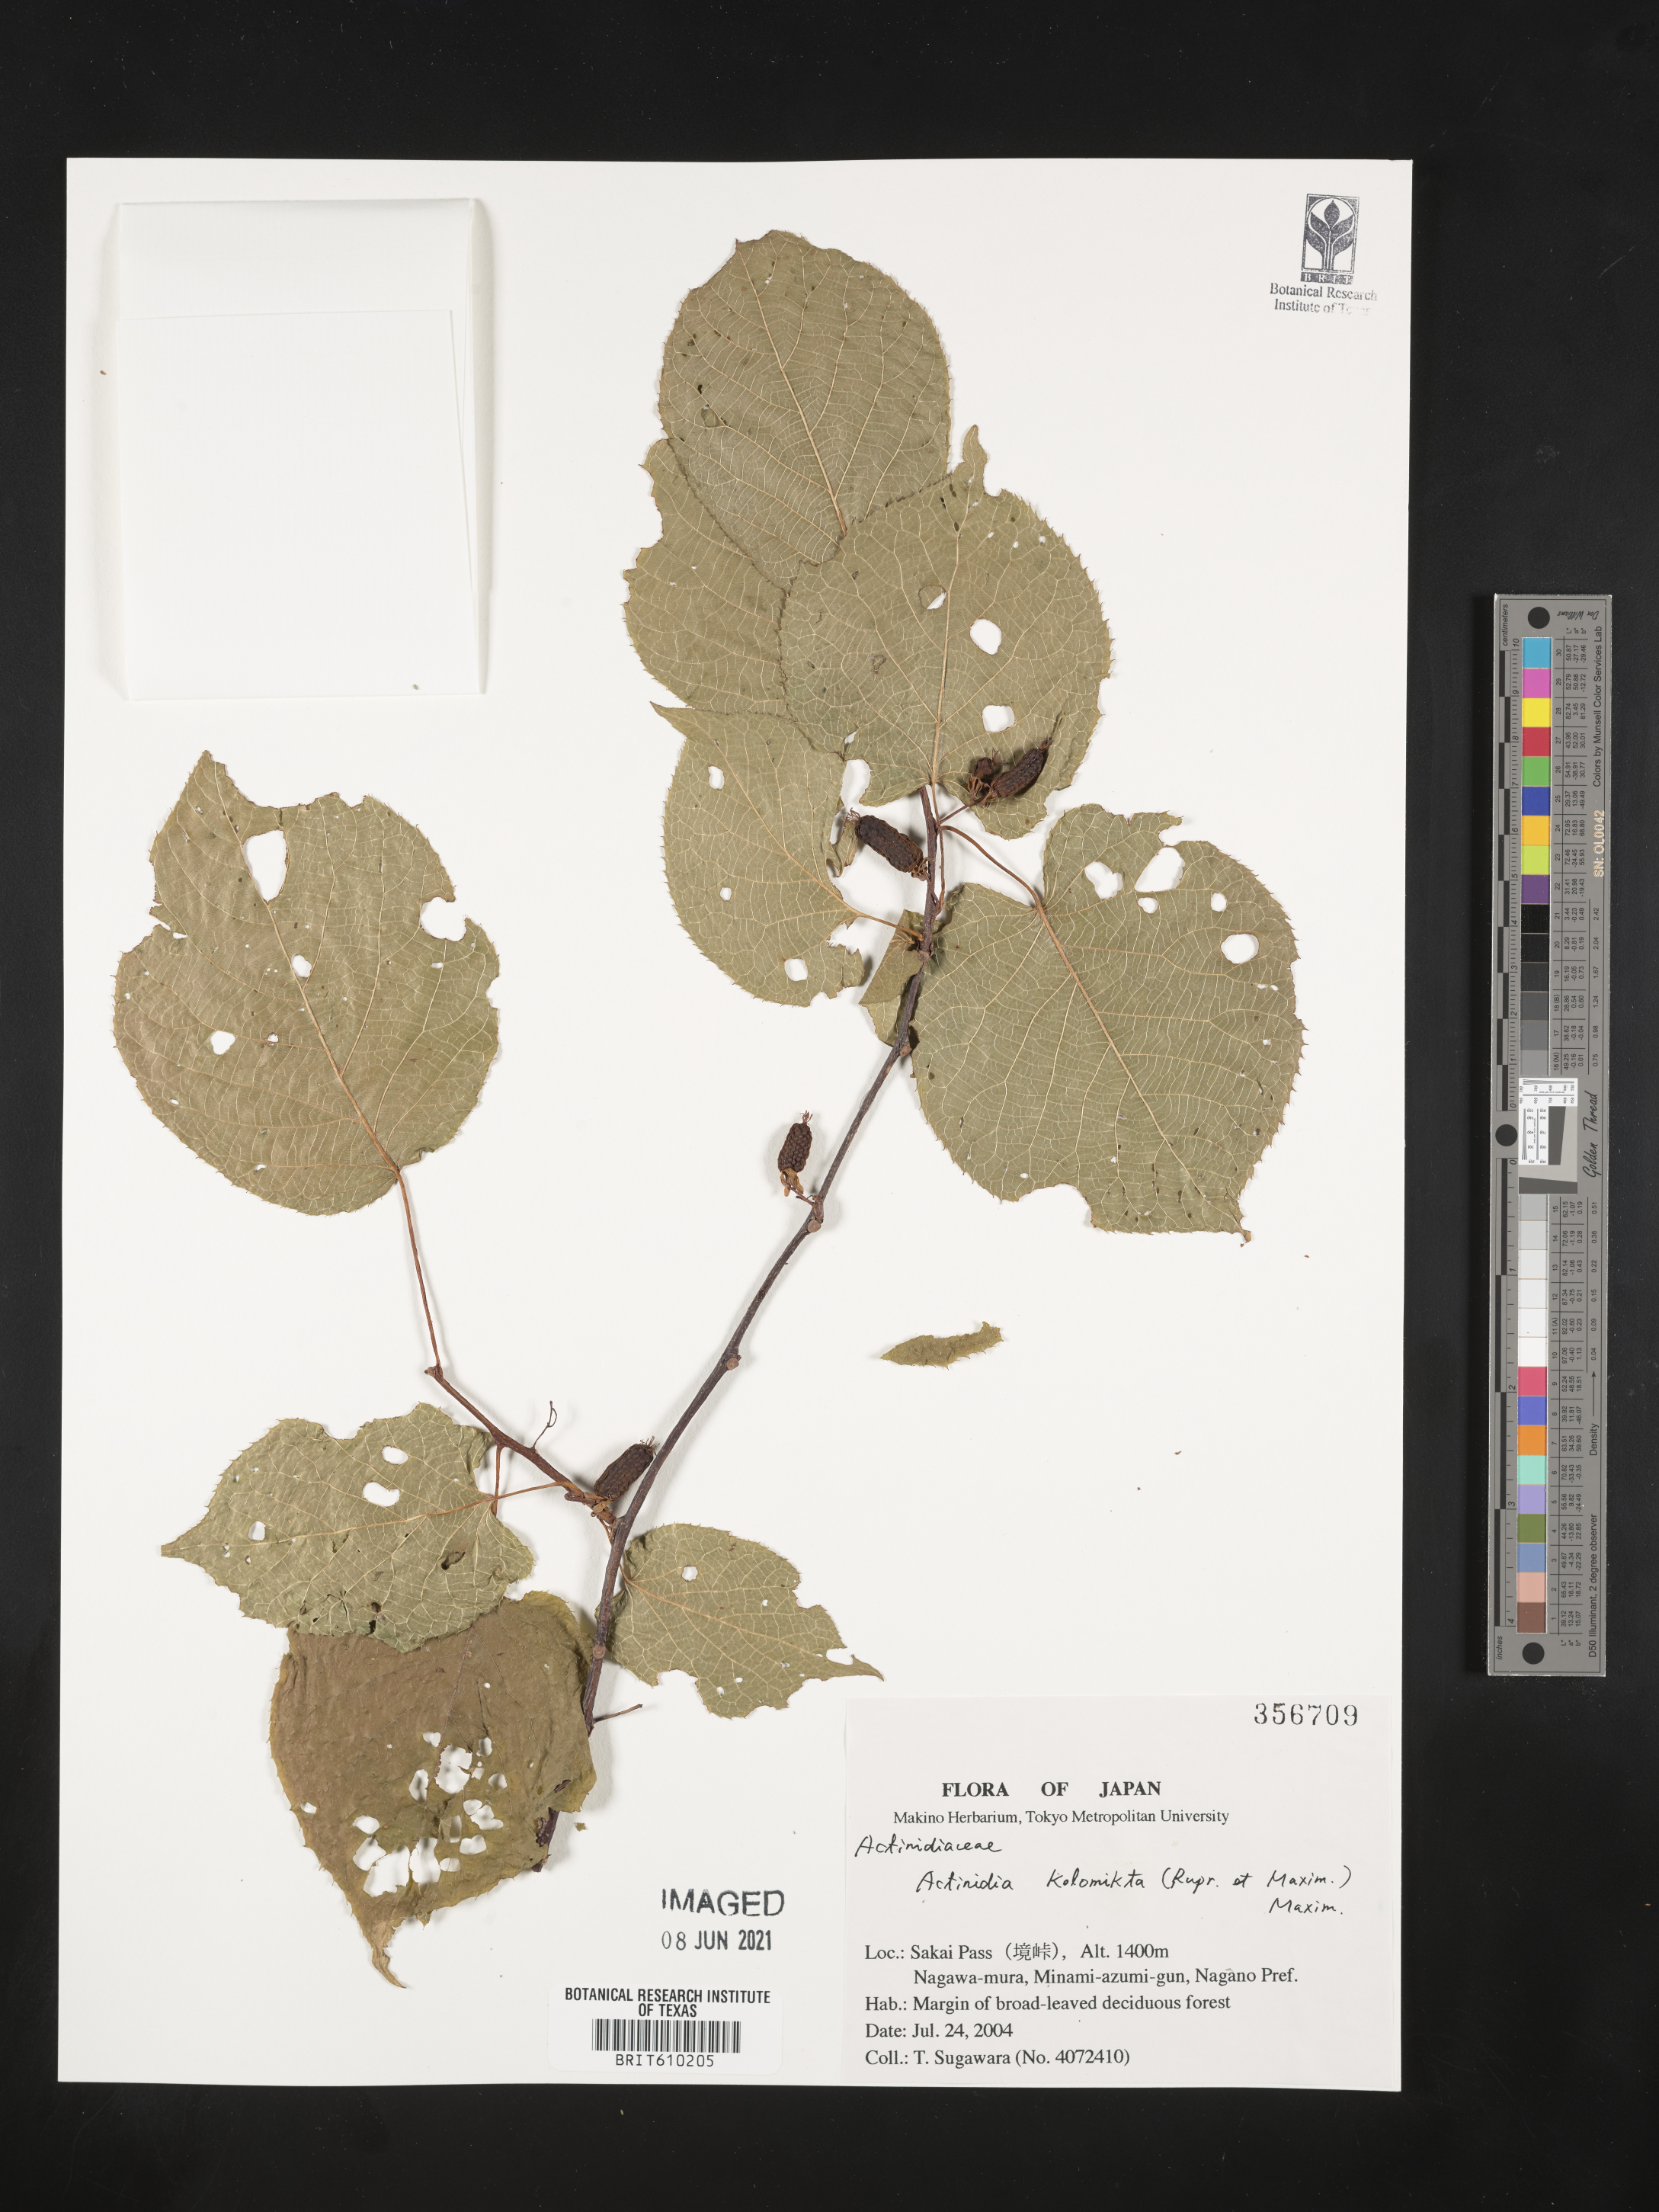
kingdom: Plantae
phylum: Tracheophyta
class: Magnoliopsida
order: Ericales
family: Actinidiaceae
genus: Actinidia
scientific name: Actinidia kolomikta
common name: Arctic beauty kiwi
